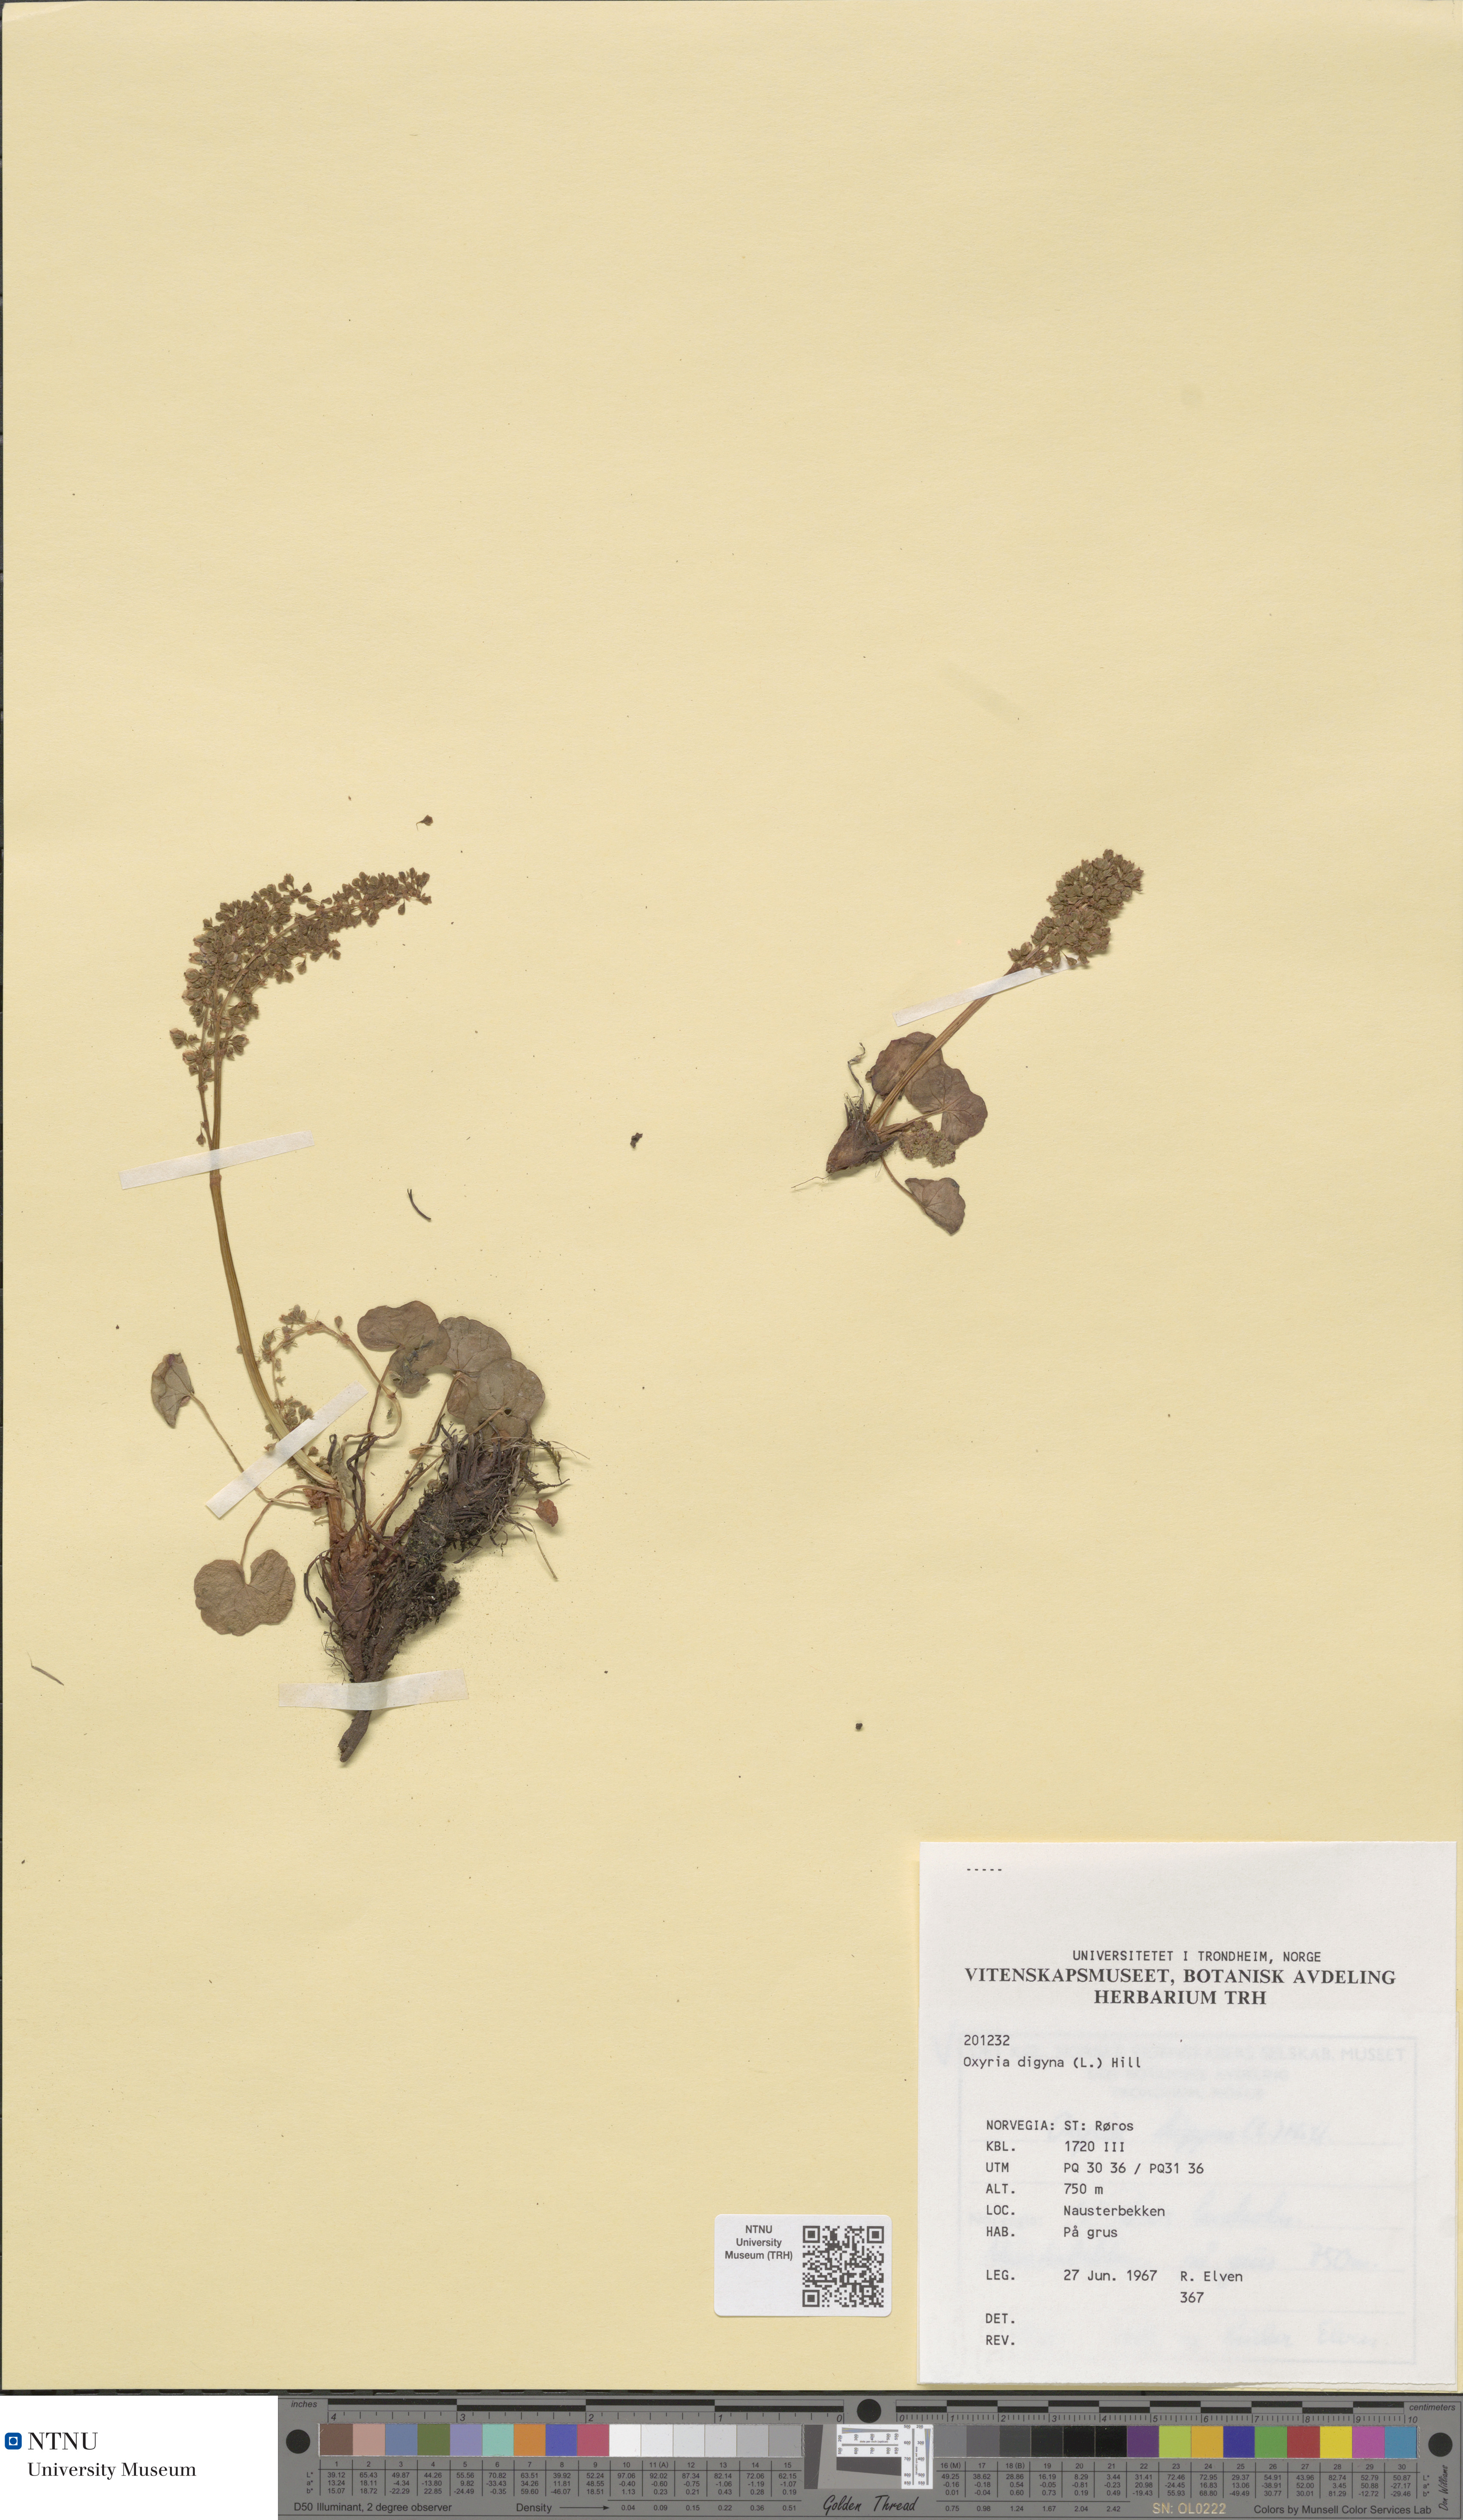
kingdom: Plantae
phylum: Tracheophyta
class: Magnoliopsida
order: Caryophyllales
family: Polygonaceae
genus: Oxyria
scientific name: Oxyria digyna
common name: Alpine mountain-sorrel
